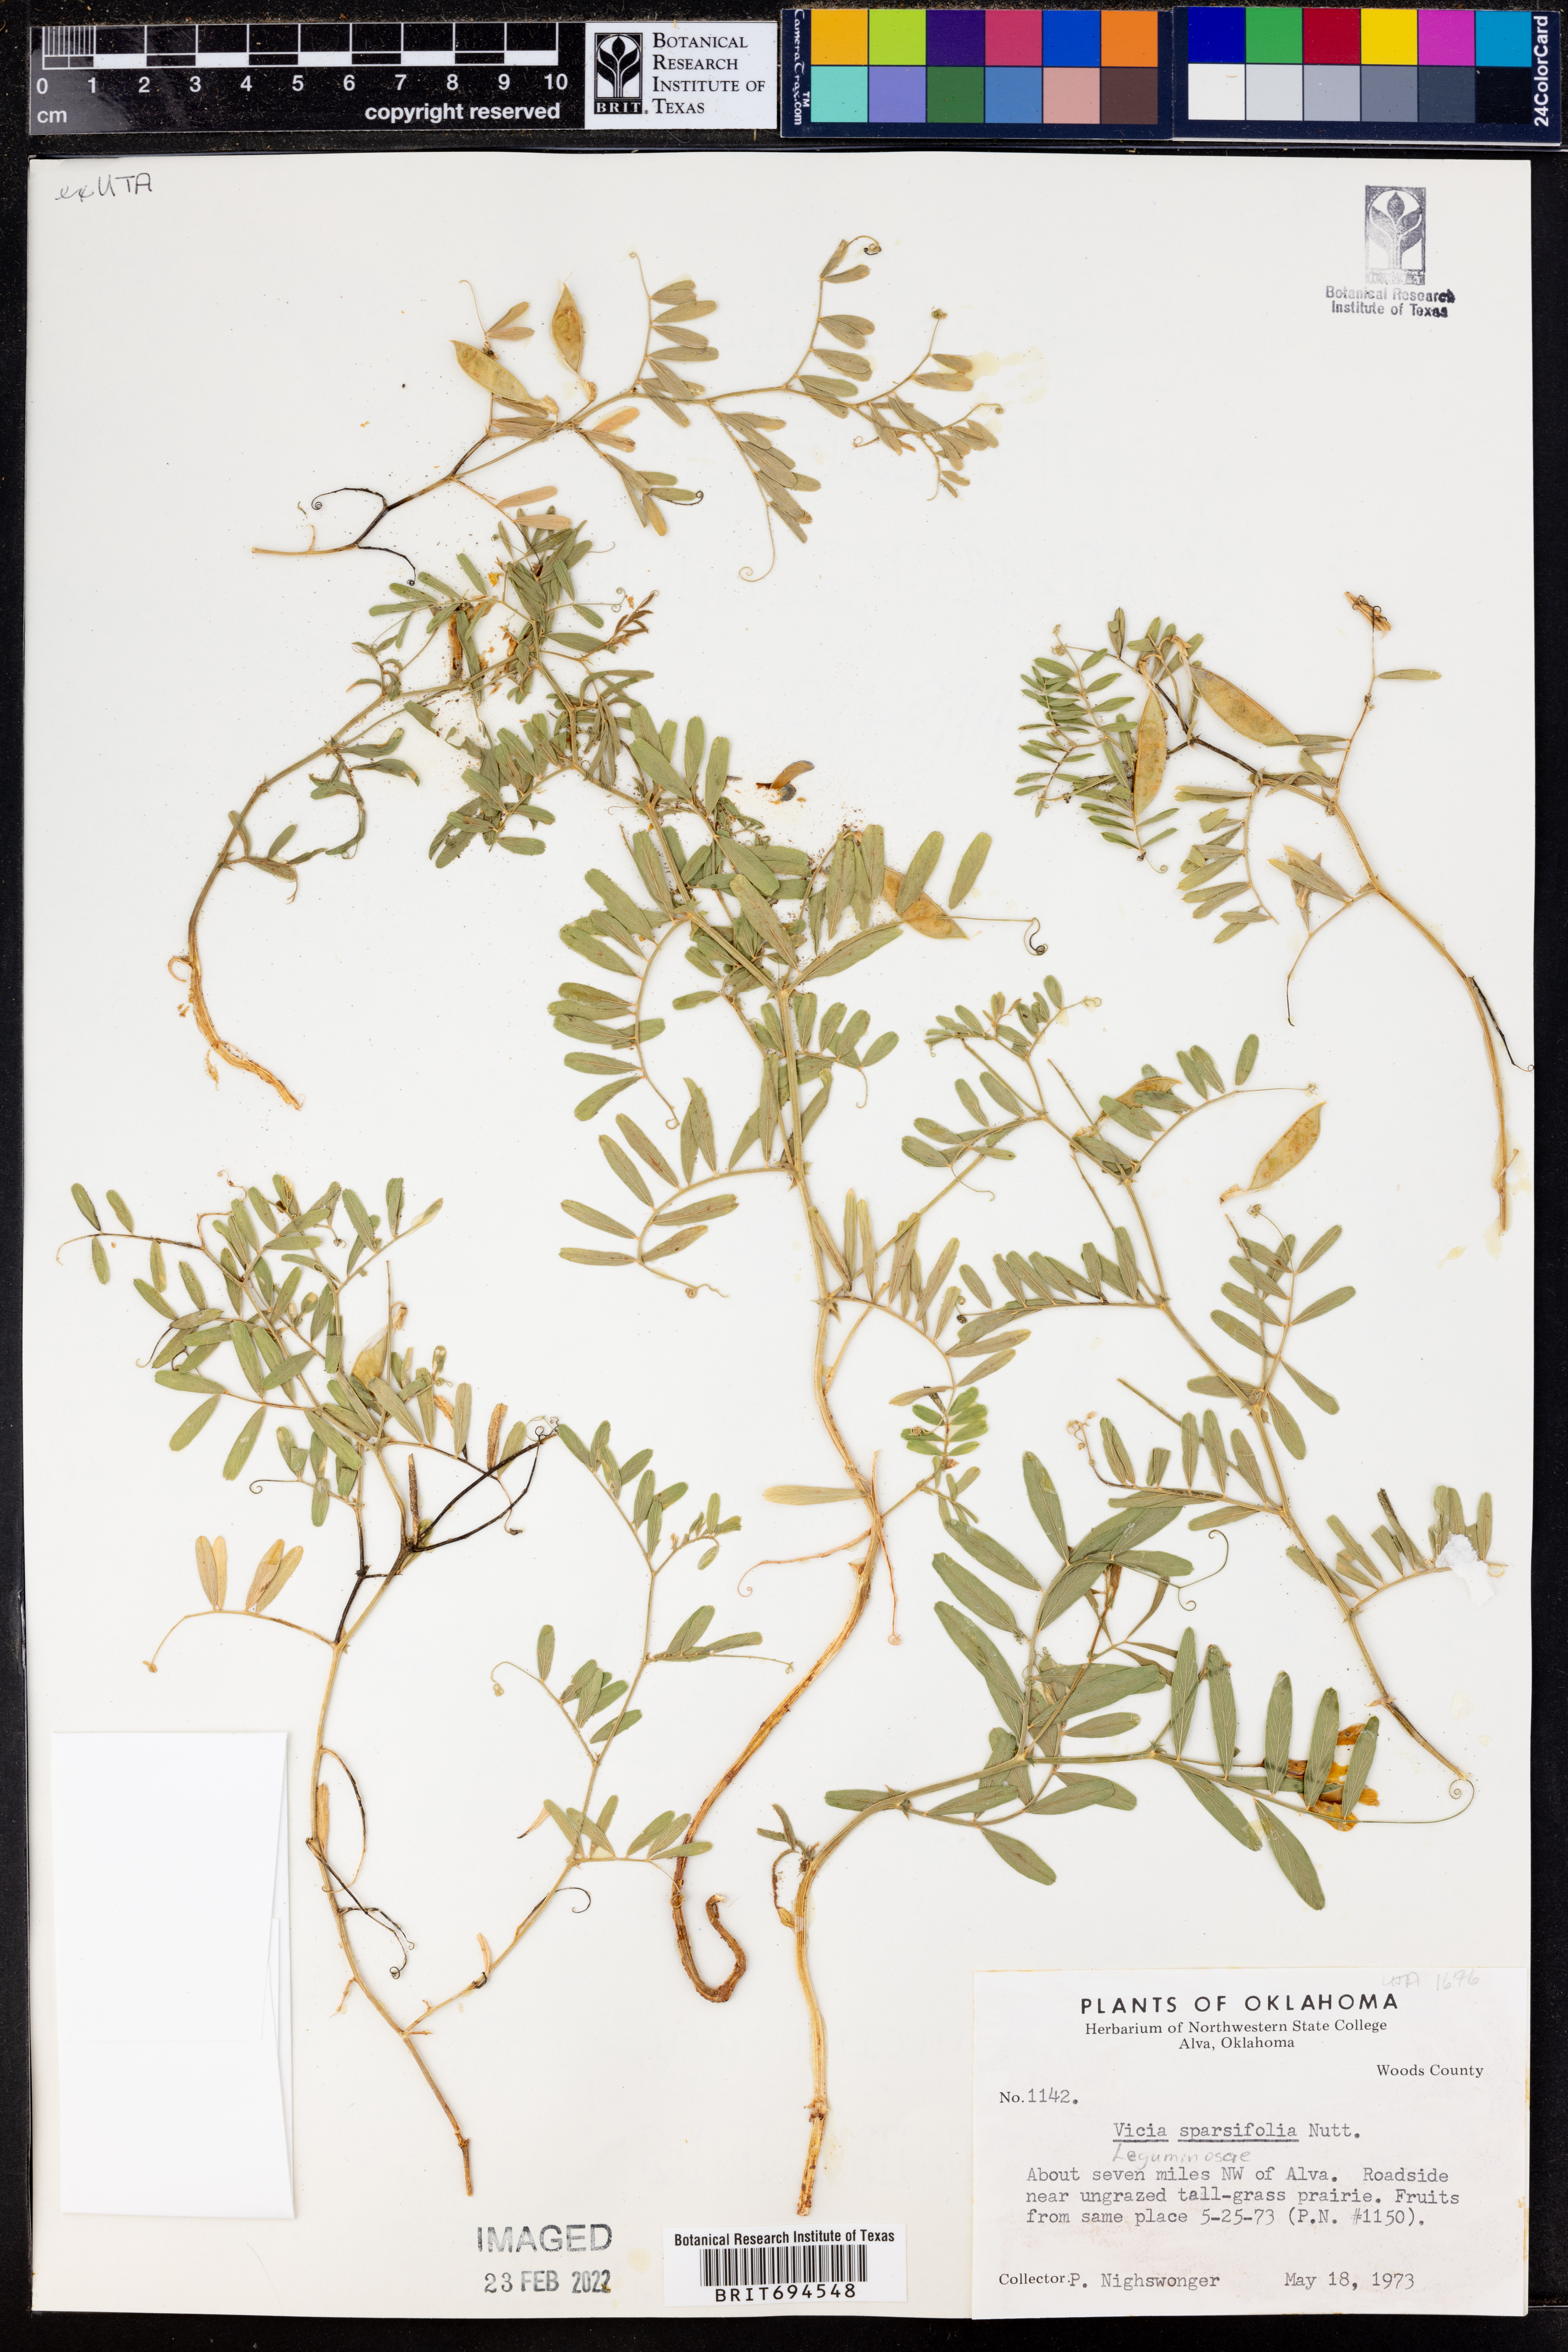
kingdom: Plantae
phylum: Tracheophyta
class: Magnoliopsida
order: Fabales
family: Fabaceae
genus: Vicia
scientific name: Vicia americana
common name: American vetch
